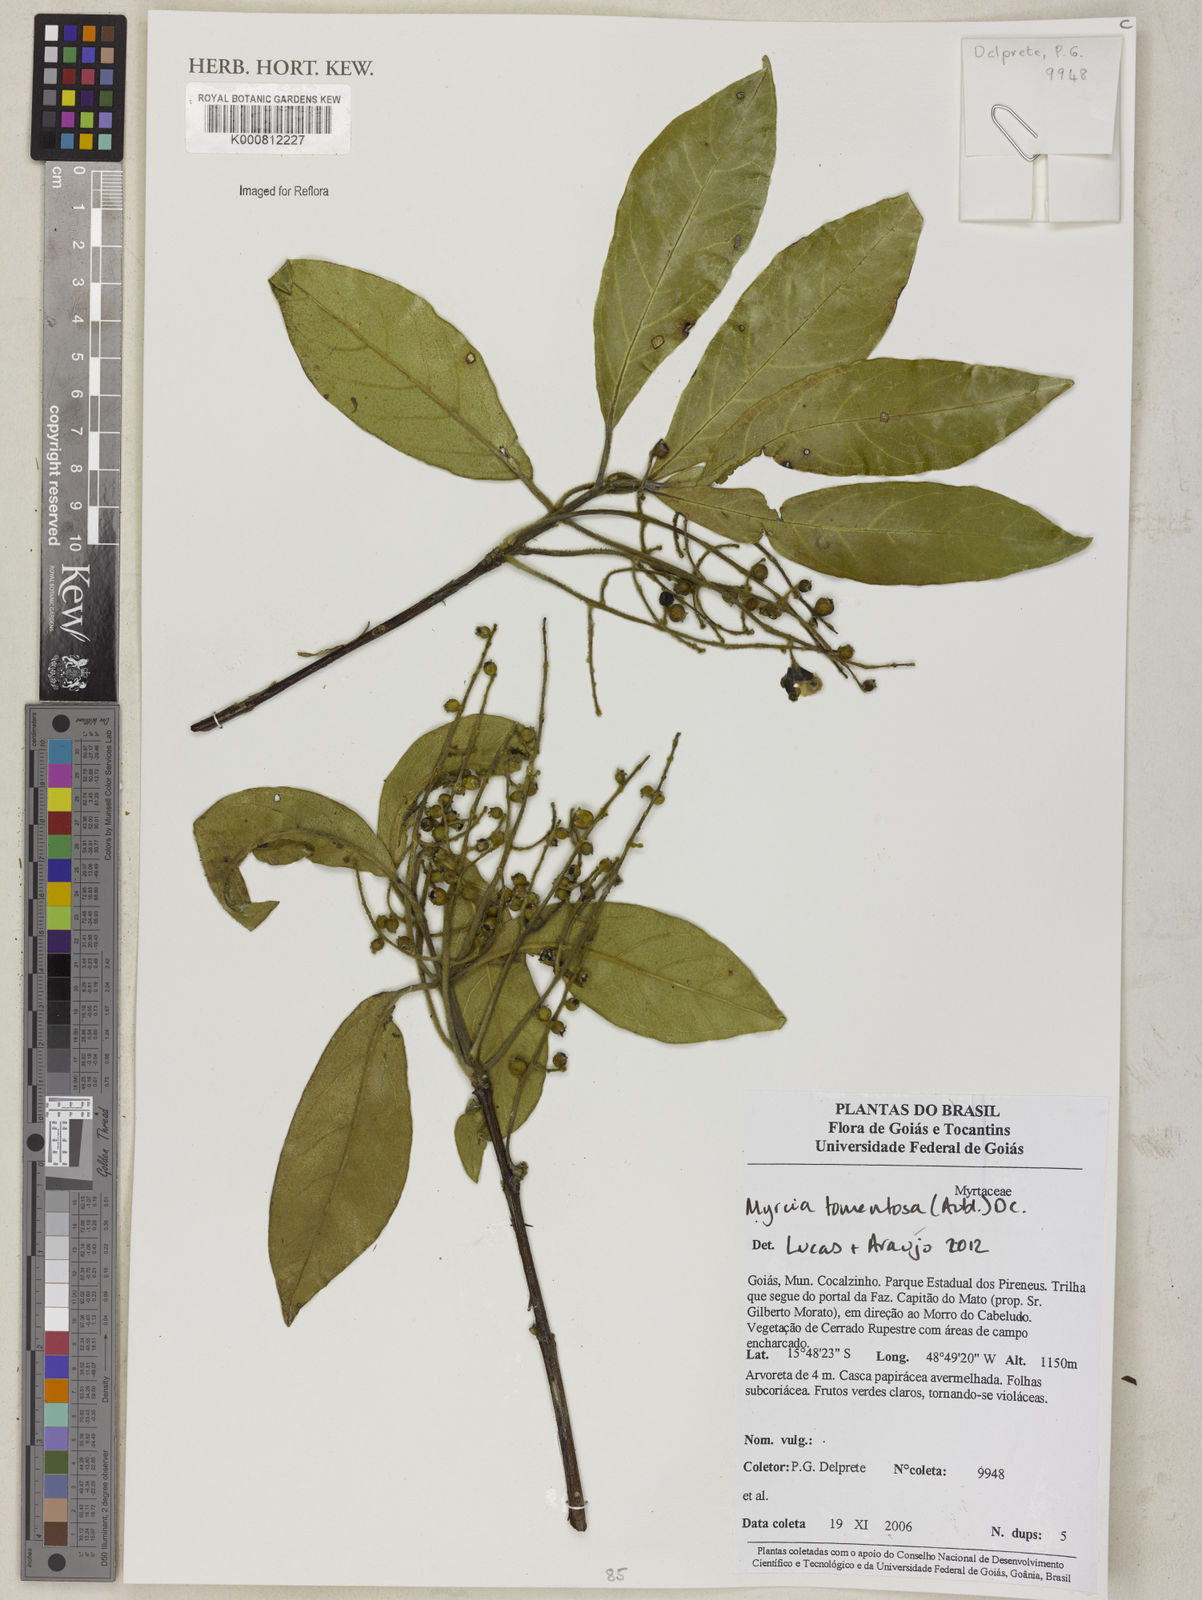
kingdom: Plantae
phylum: Tracheophyta
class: Magnoliopsida
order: Myrtales
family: Myrtaceae
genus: Myrcia
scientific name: Myrcia tomentosa
